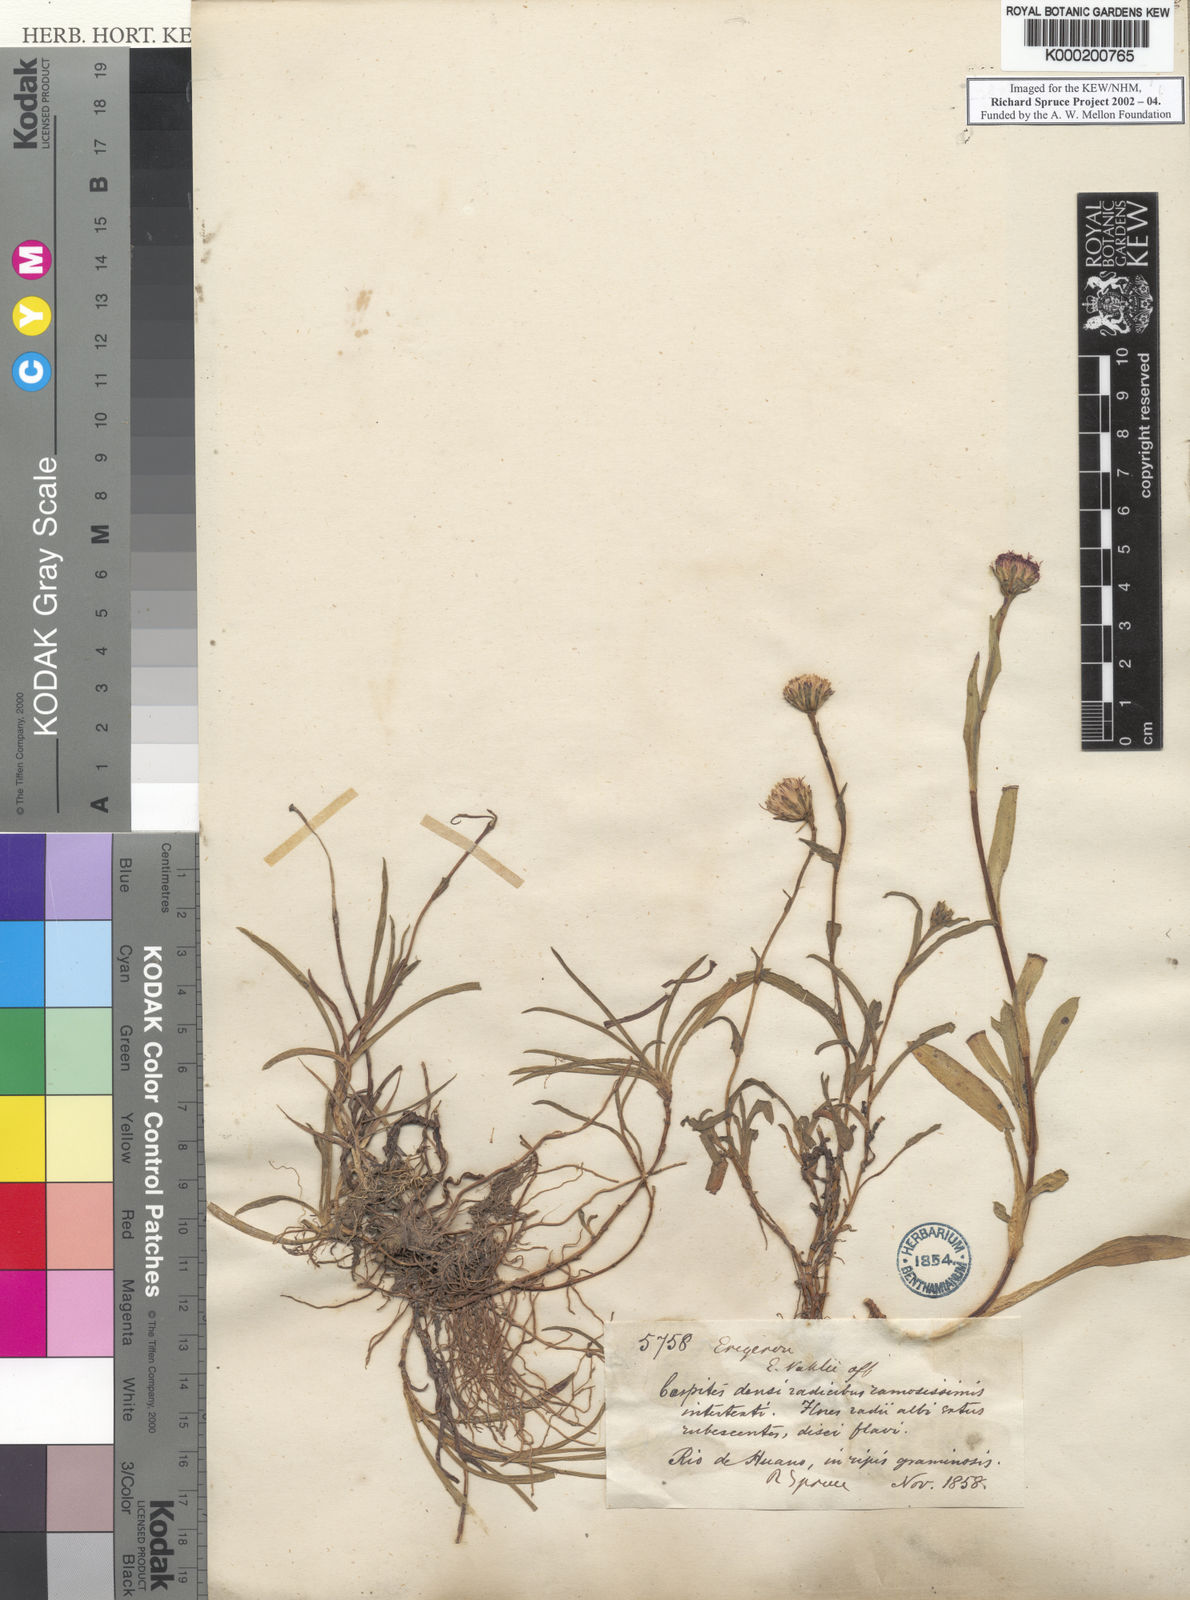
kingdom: Plantae
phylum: Tracheophyta
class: Magnoliopsida
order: Asterales
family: Asteraceae
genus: Erigeron
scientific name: Erigeron
